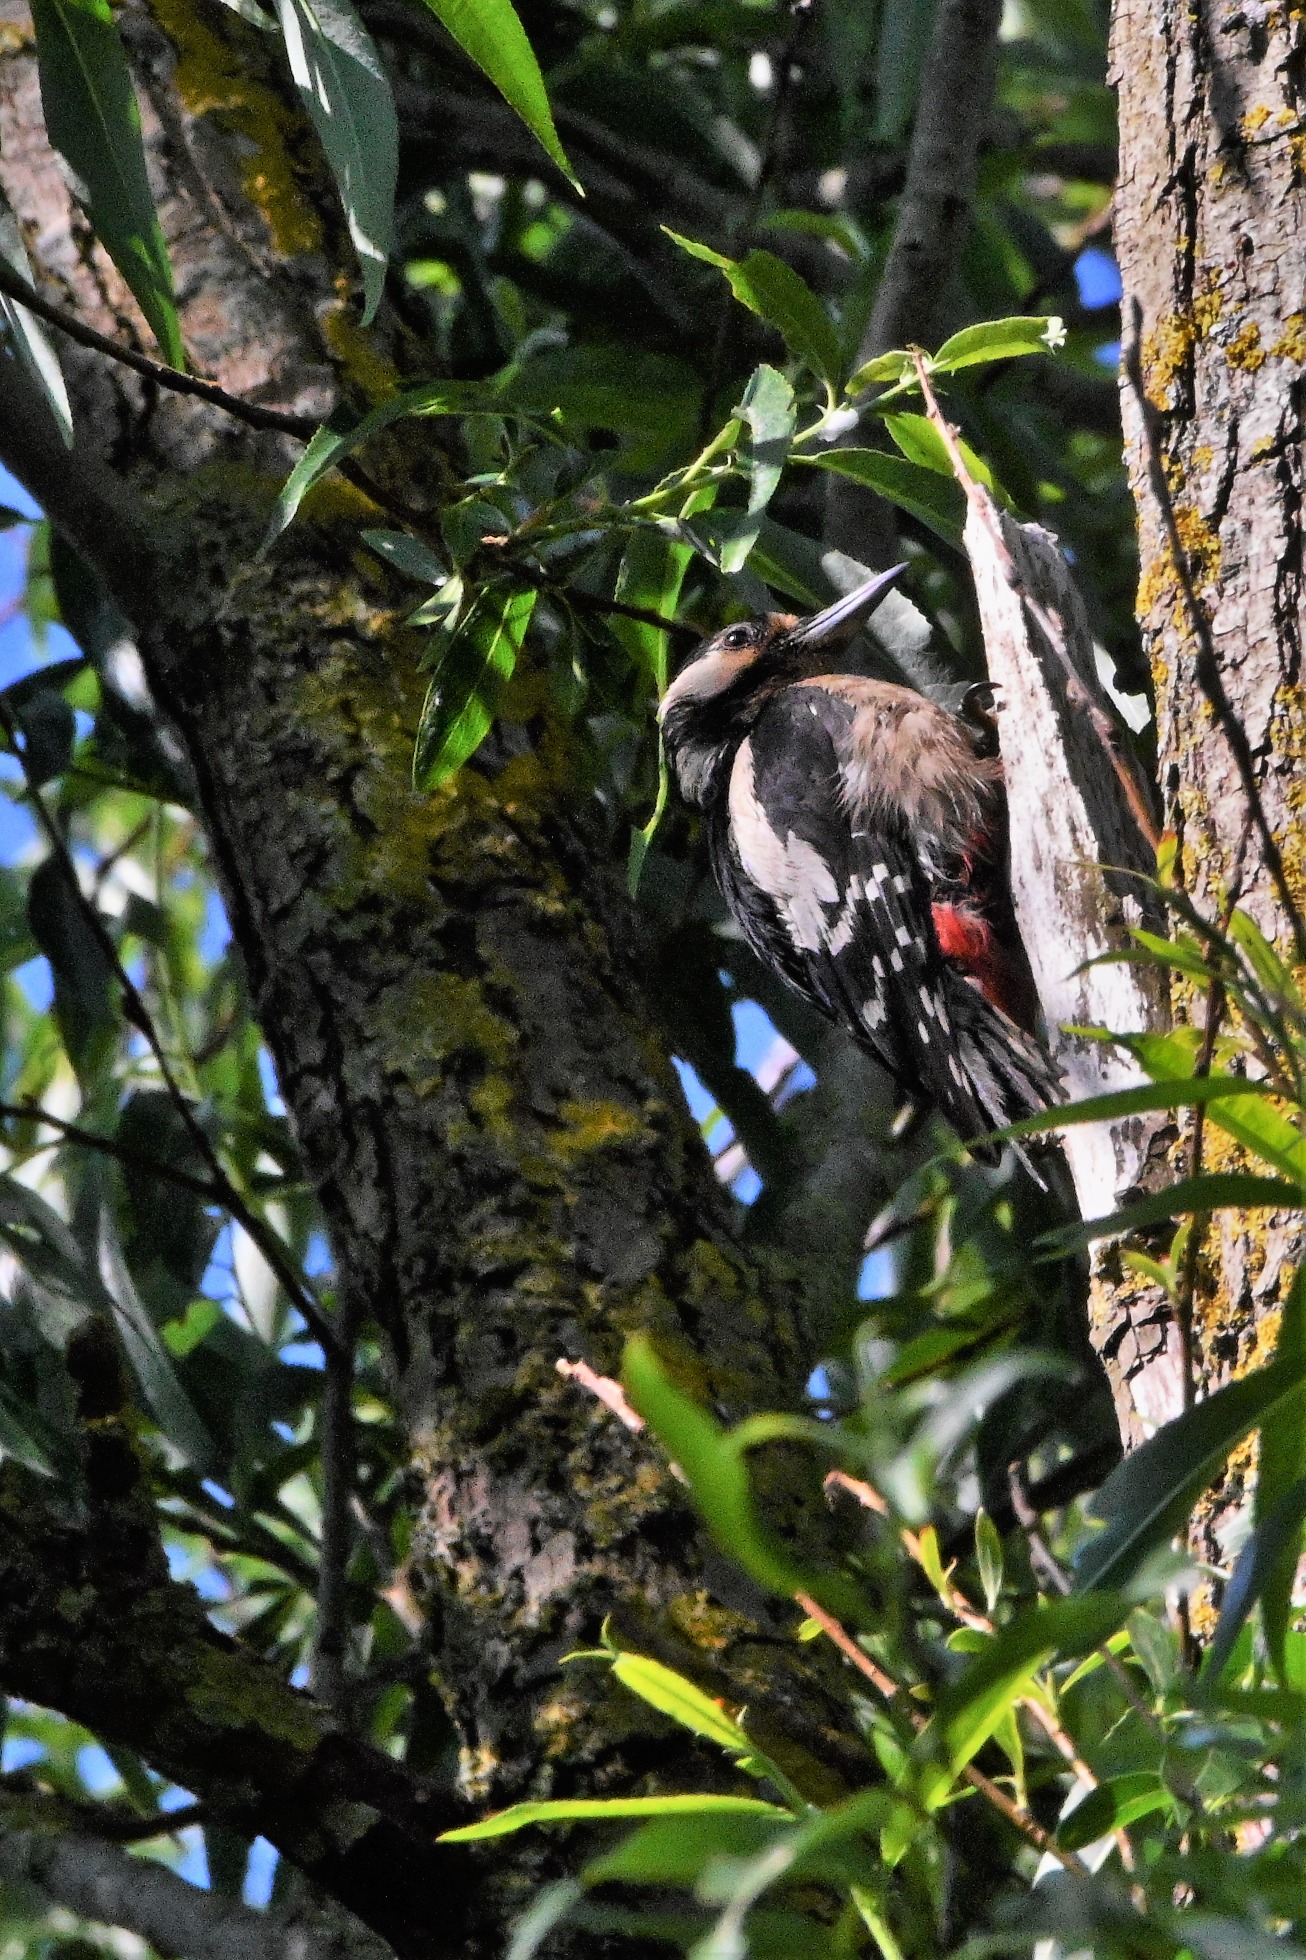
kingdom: Animalia
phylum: Chordata
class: Aves
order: Piciformes
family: Picidae
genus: Dendrocopos
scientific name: Dendrocopos major
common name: Stor flagspætte
